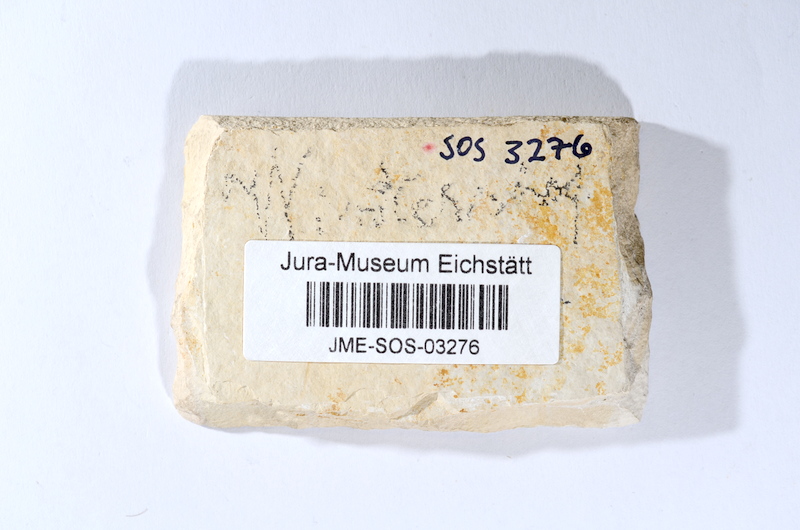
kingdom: Animalia
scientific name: Animalia
